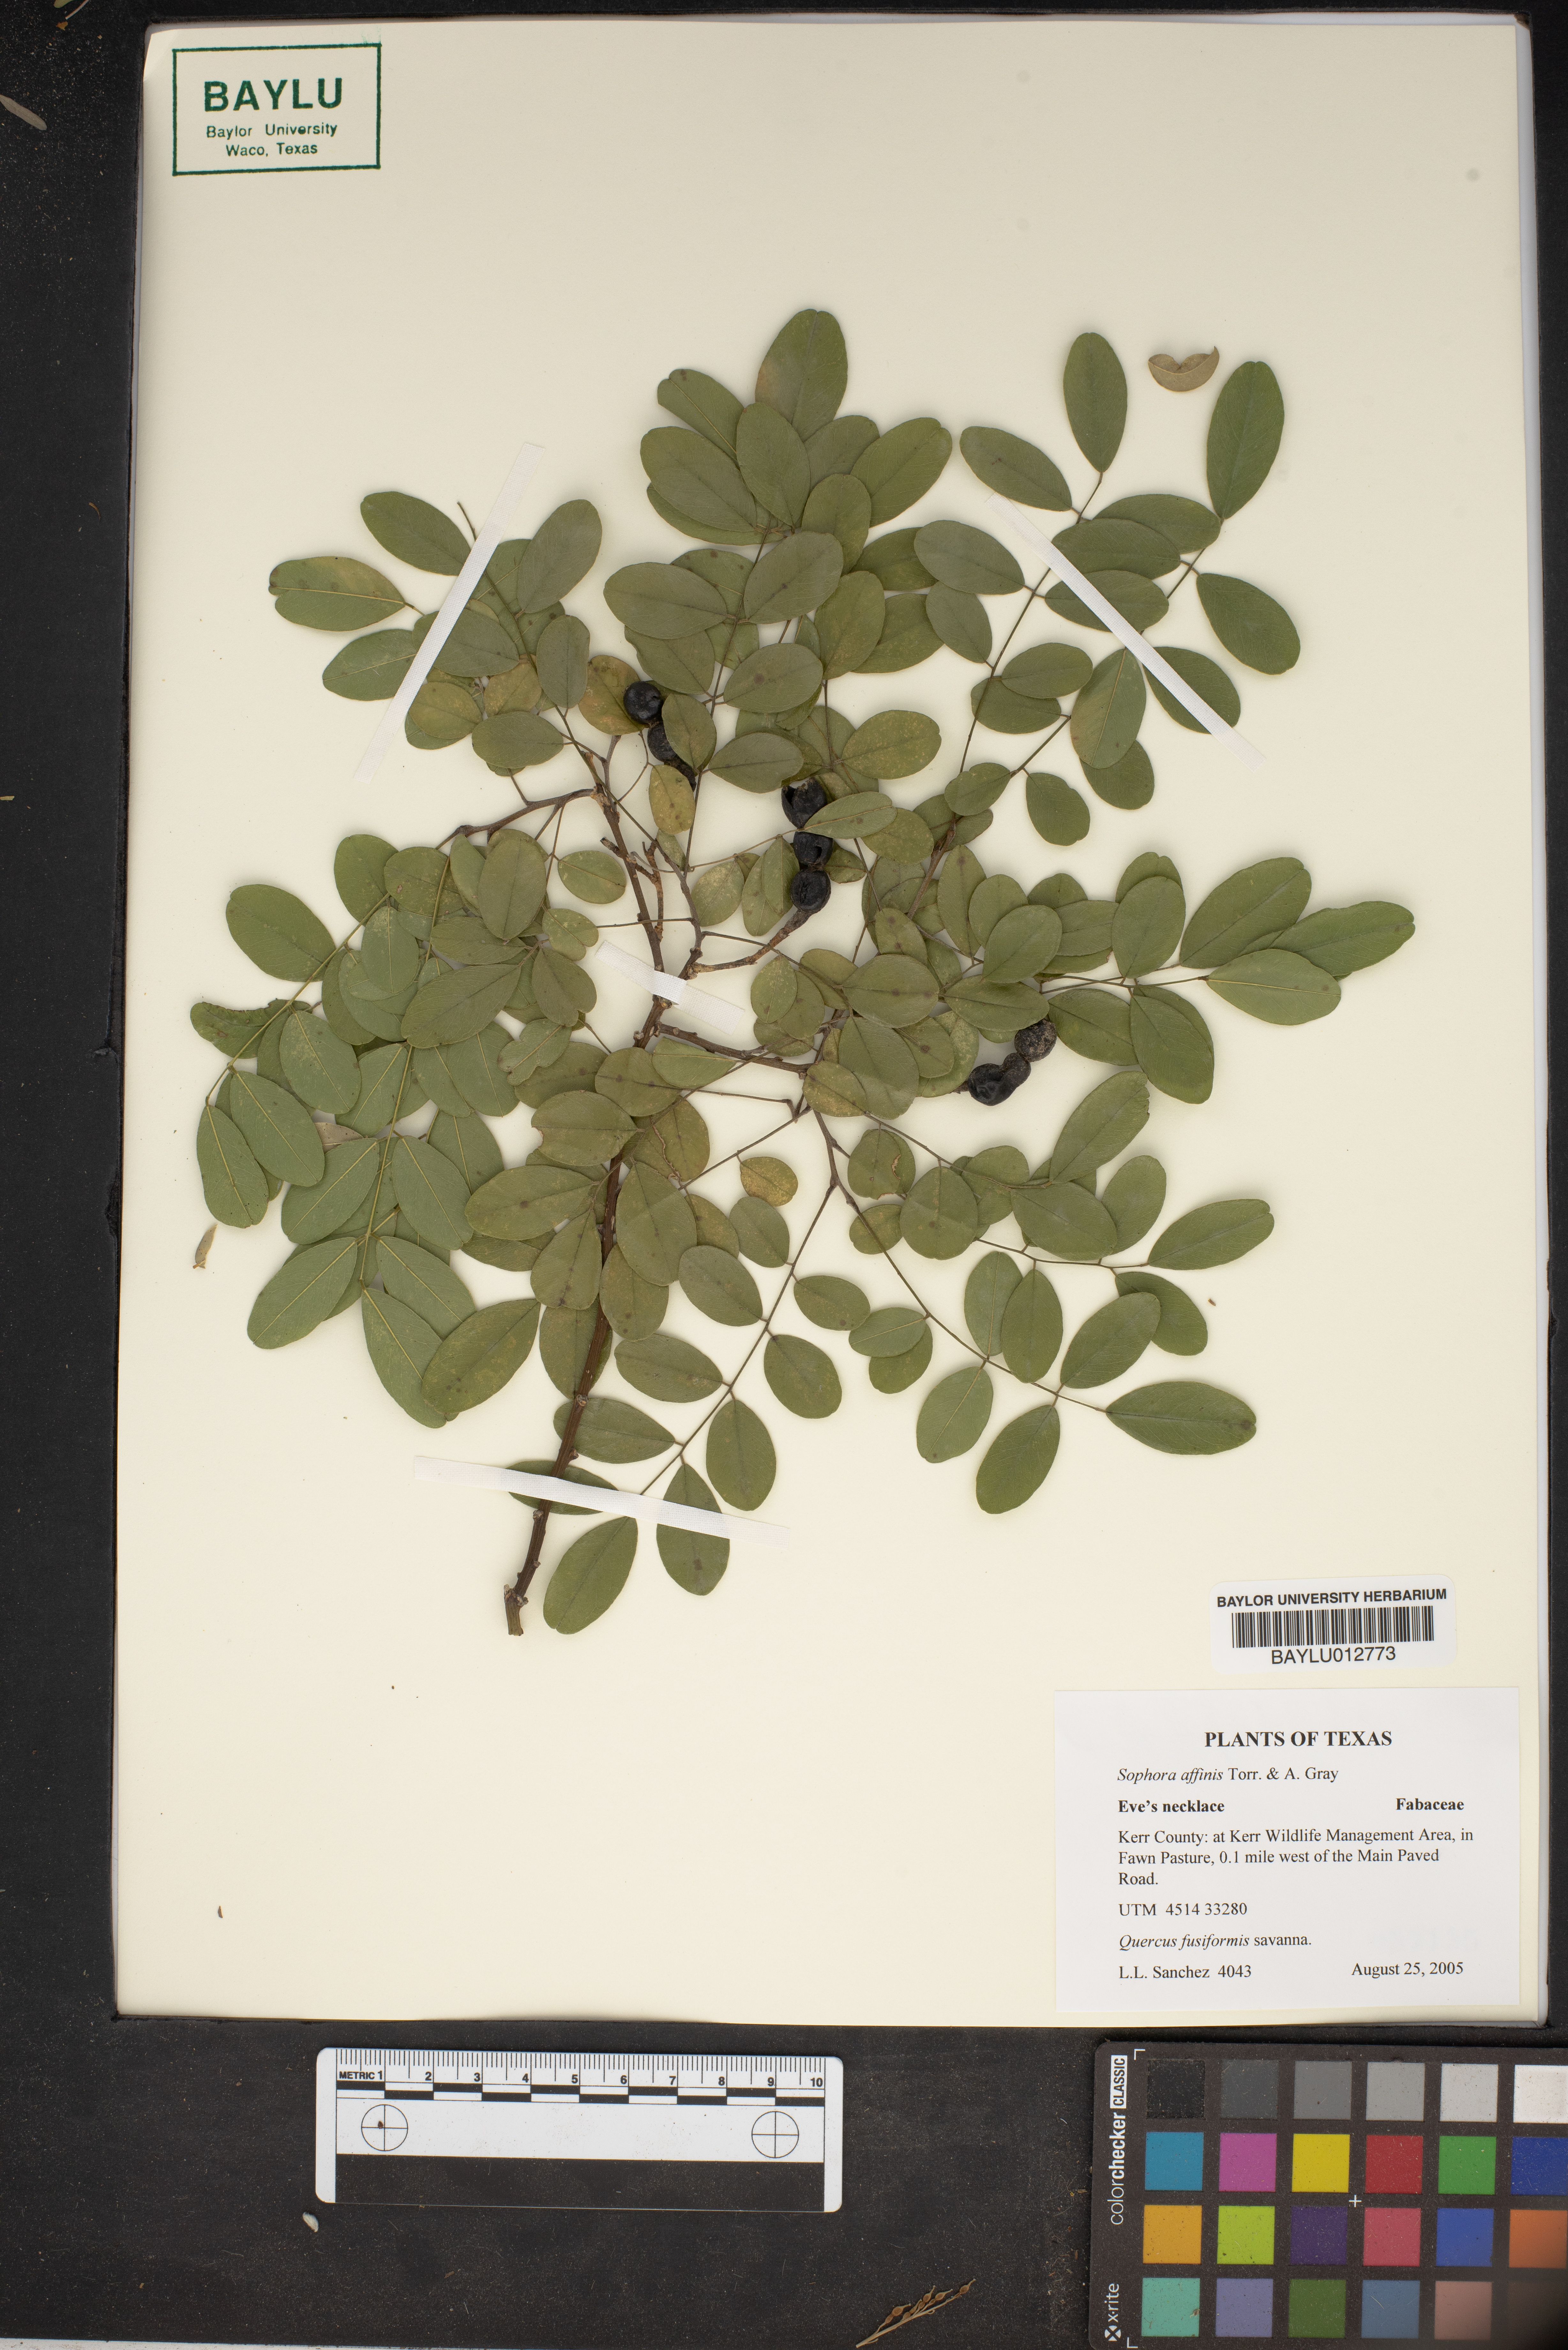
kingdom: Plantae
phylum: Tracheophyta
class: Magnoliopsida
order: Fabales
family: Fabaceae
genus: Styphnolobium
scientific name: Styphnolobium affine
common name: Texas sophora
